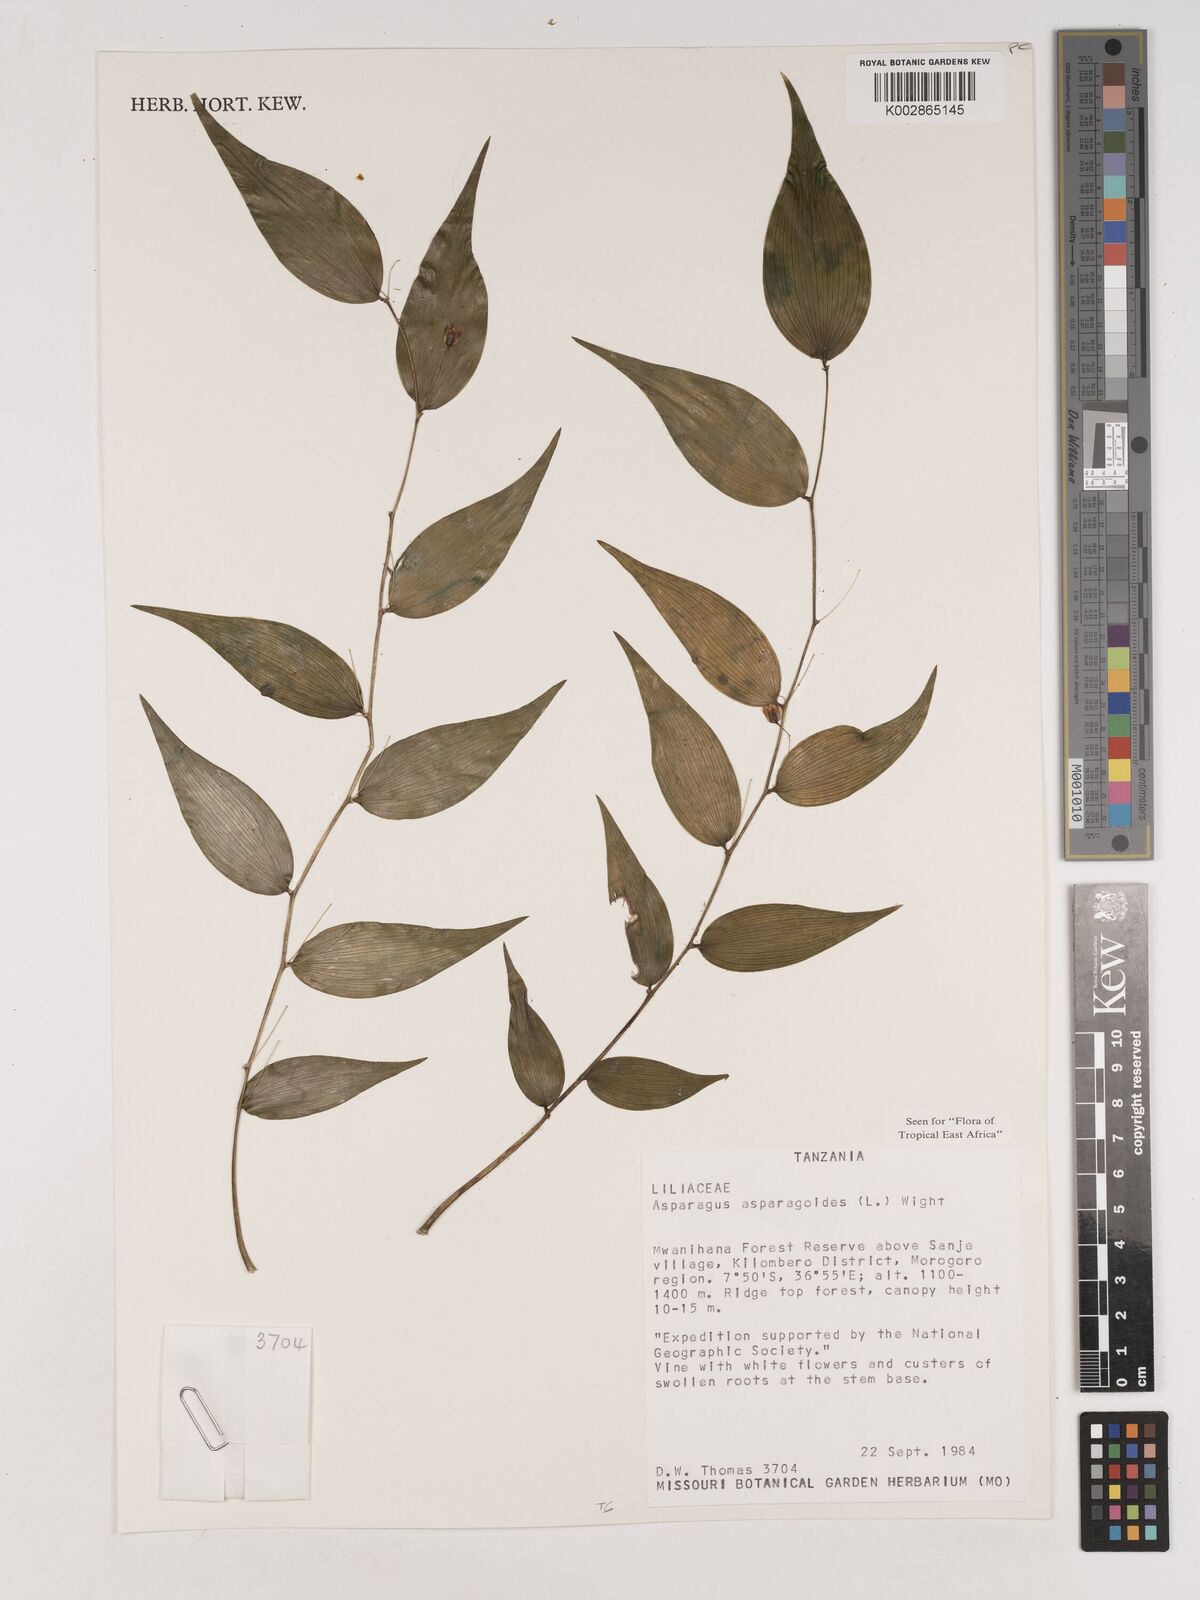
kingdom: Plantae
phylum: Tracheophyta
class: Liliopsida
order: Asparagales
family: Asparagaceae
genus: Asparagus
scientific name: Asparagus asparagoides
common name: African asparagus fern
